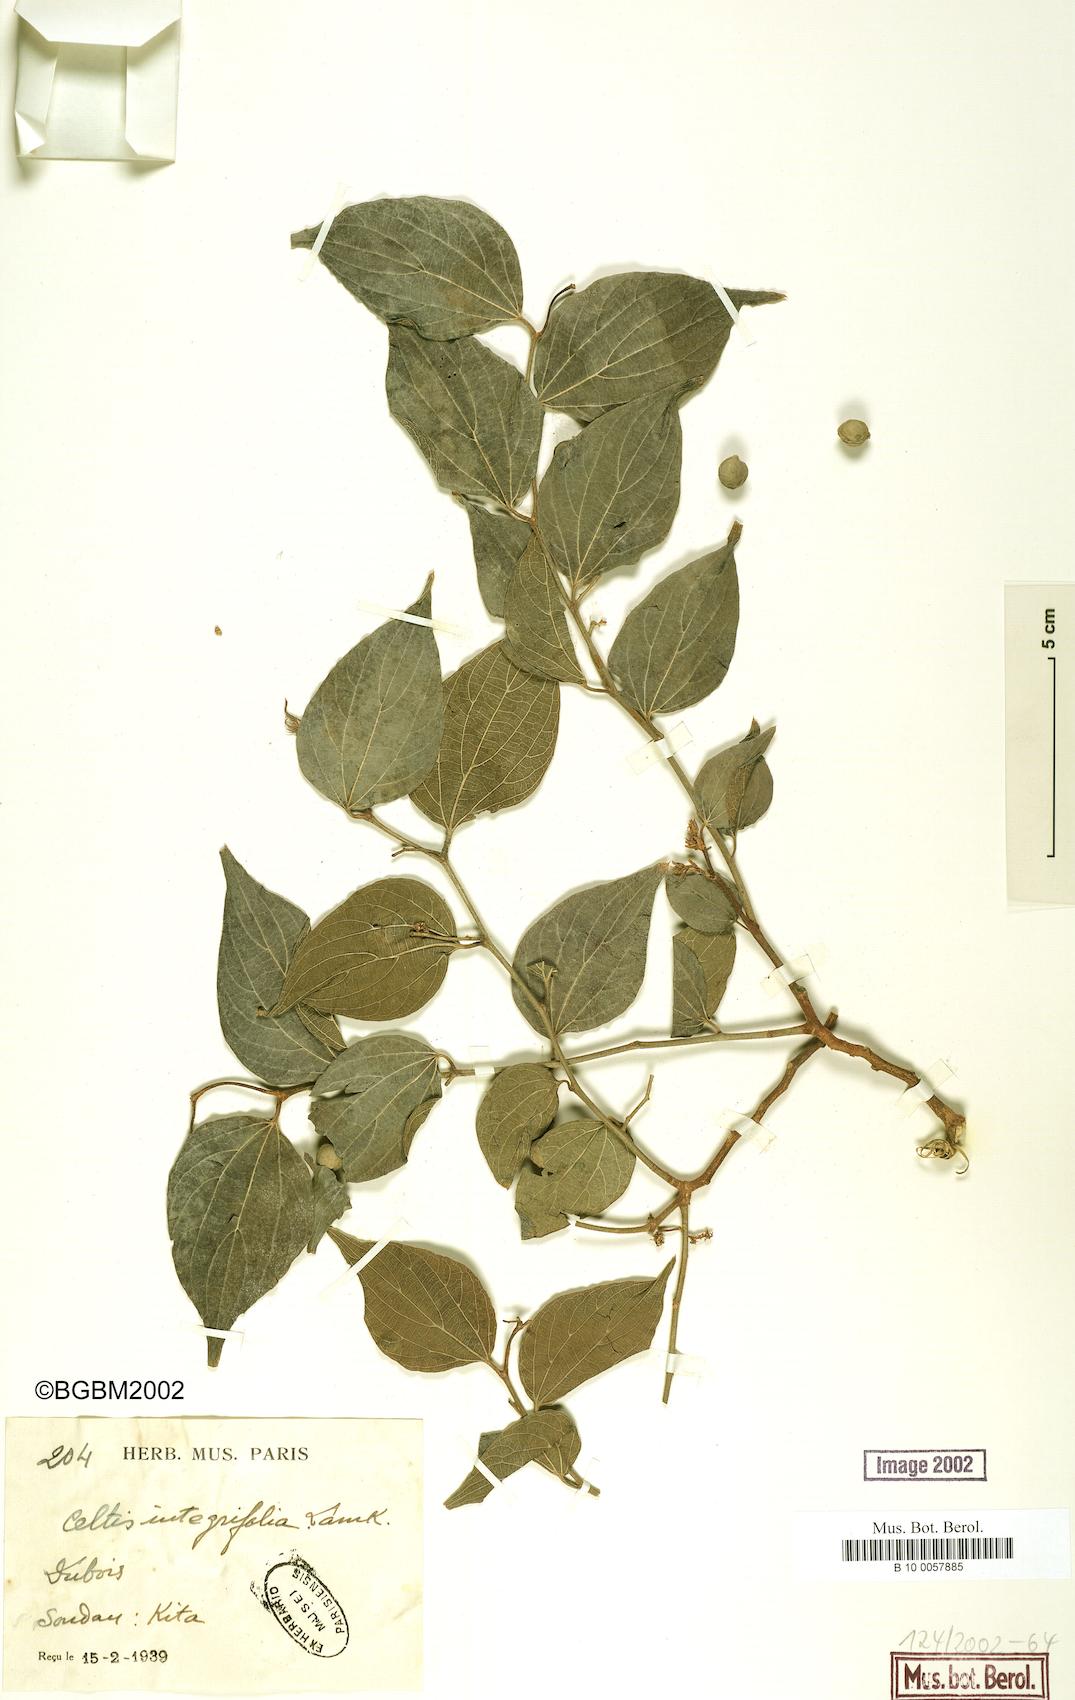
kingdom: Plantae
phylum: Tracheophyta
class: Magnoliopsida
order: Rosales
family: Cannabaceae
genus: Celtis
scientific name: Celtis toka
